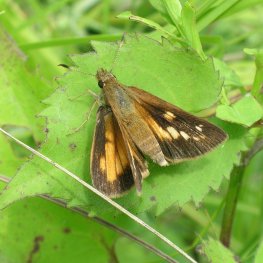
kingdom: Animalia
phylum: Arthropoda
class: Insecta
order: Lepidoptera
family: Hesperiidae
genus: Poanes
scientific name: Poanes viator
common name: Broad-winged Skipper
